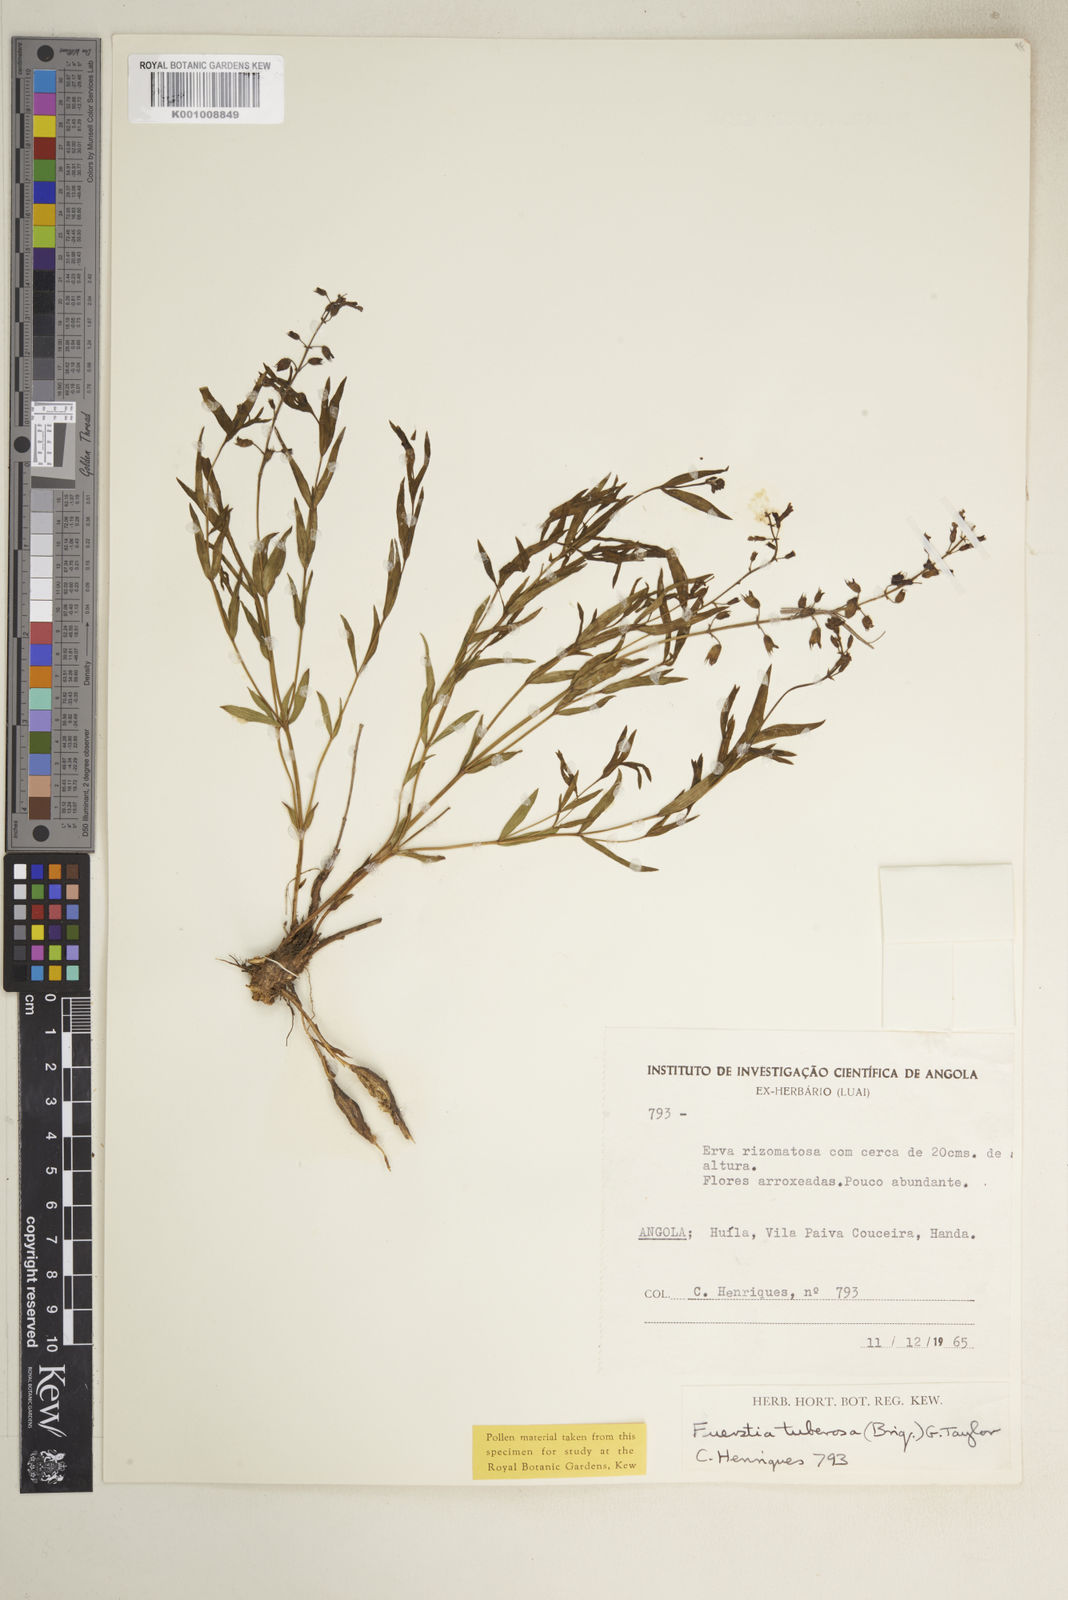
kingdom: Plantae
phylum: Tracheophyta
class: Magnoliopsida
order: Lamiales
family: Lamiaceae
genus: Fuerstia
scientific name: Fuerstia rigida
